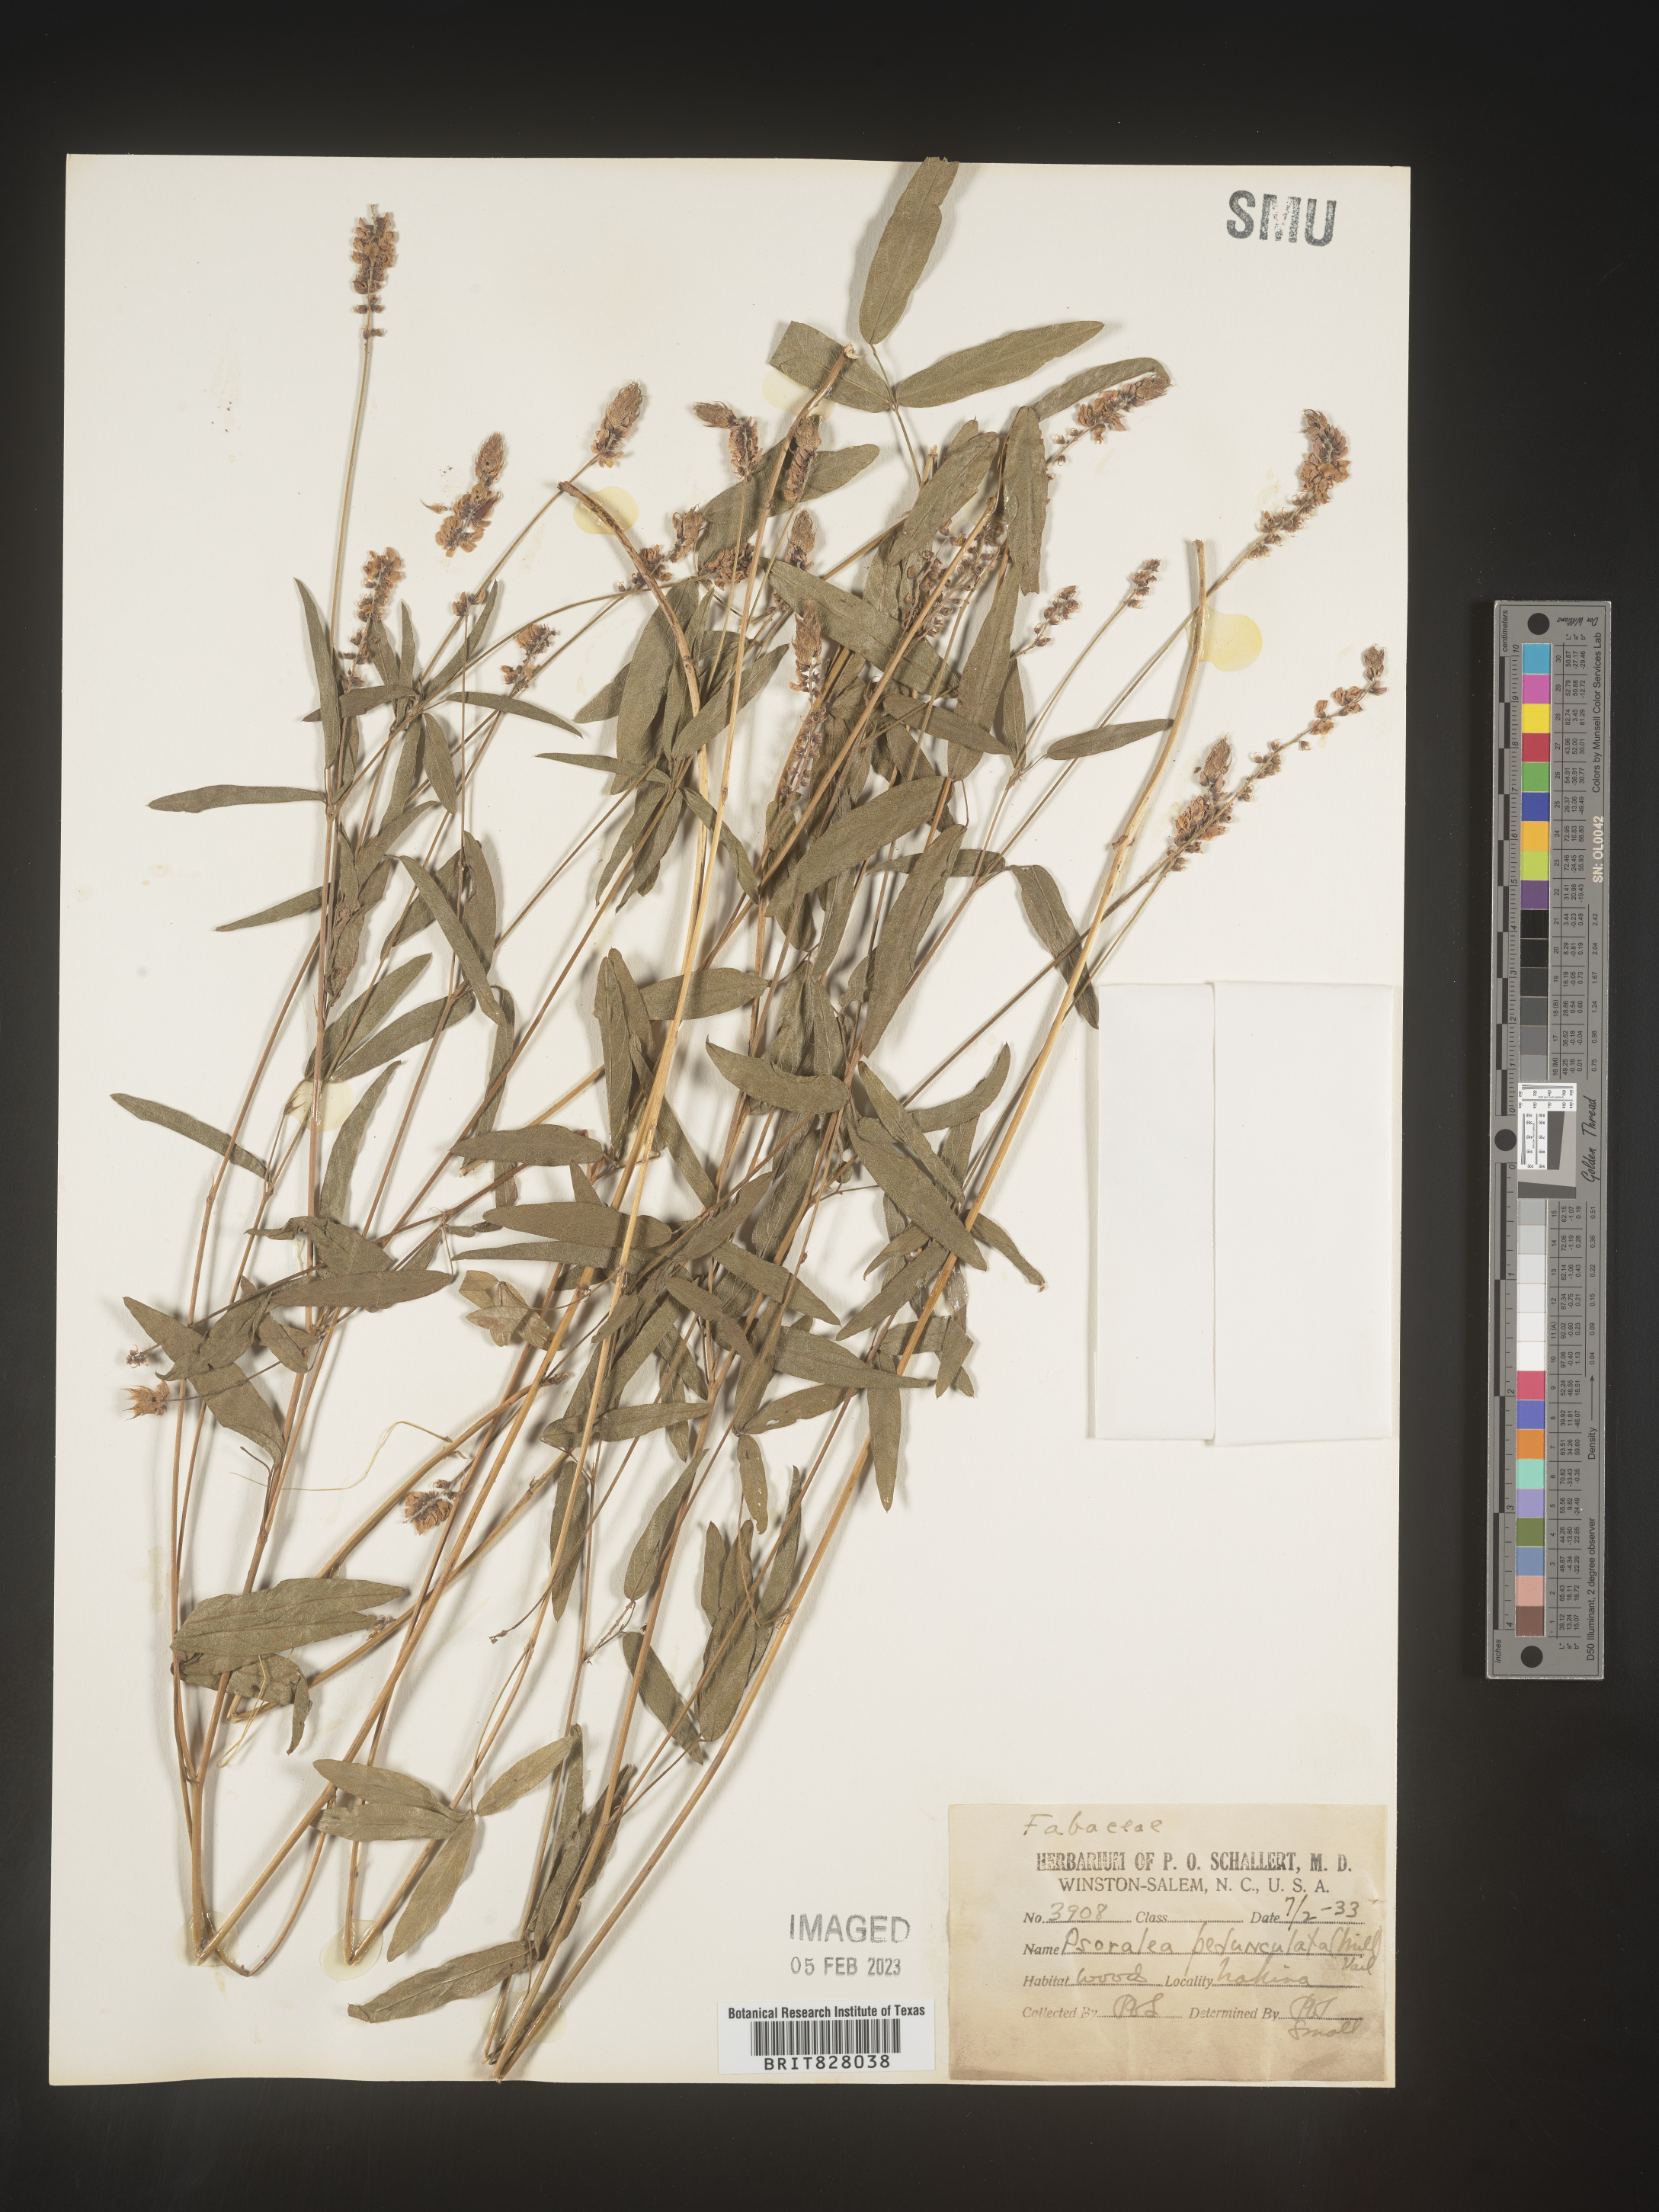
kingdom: Plantae
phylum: Tracheophyta
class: Magnoliopsida
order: Fabales
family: Fabaceae
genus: Orbexilum
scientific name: Orbexilum pedunculatum
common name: Sampson's snakeroot
